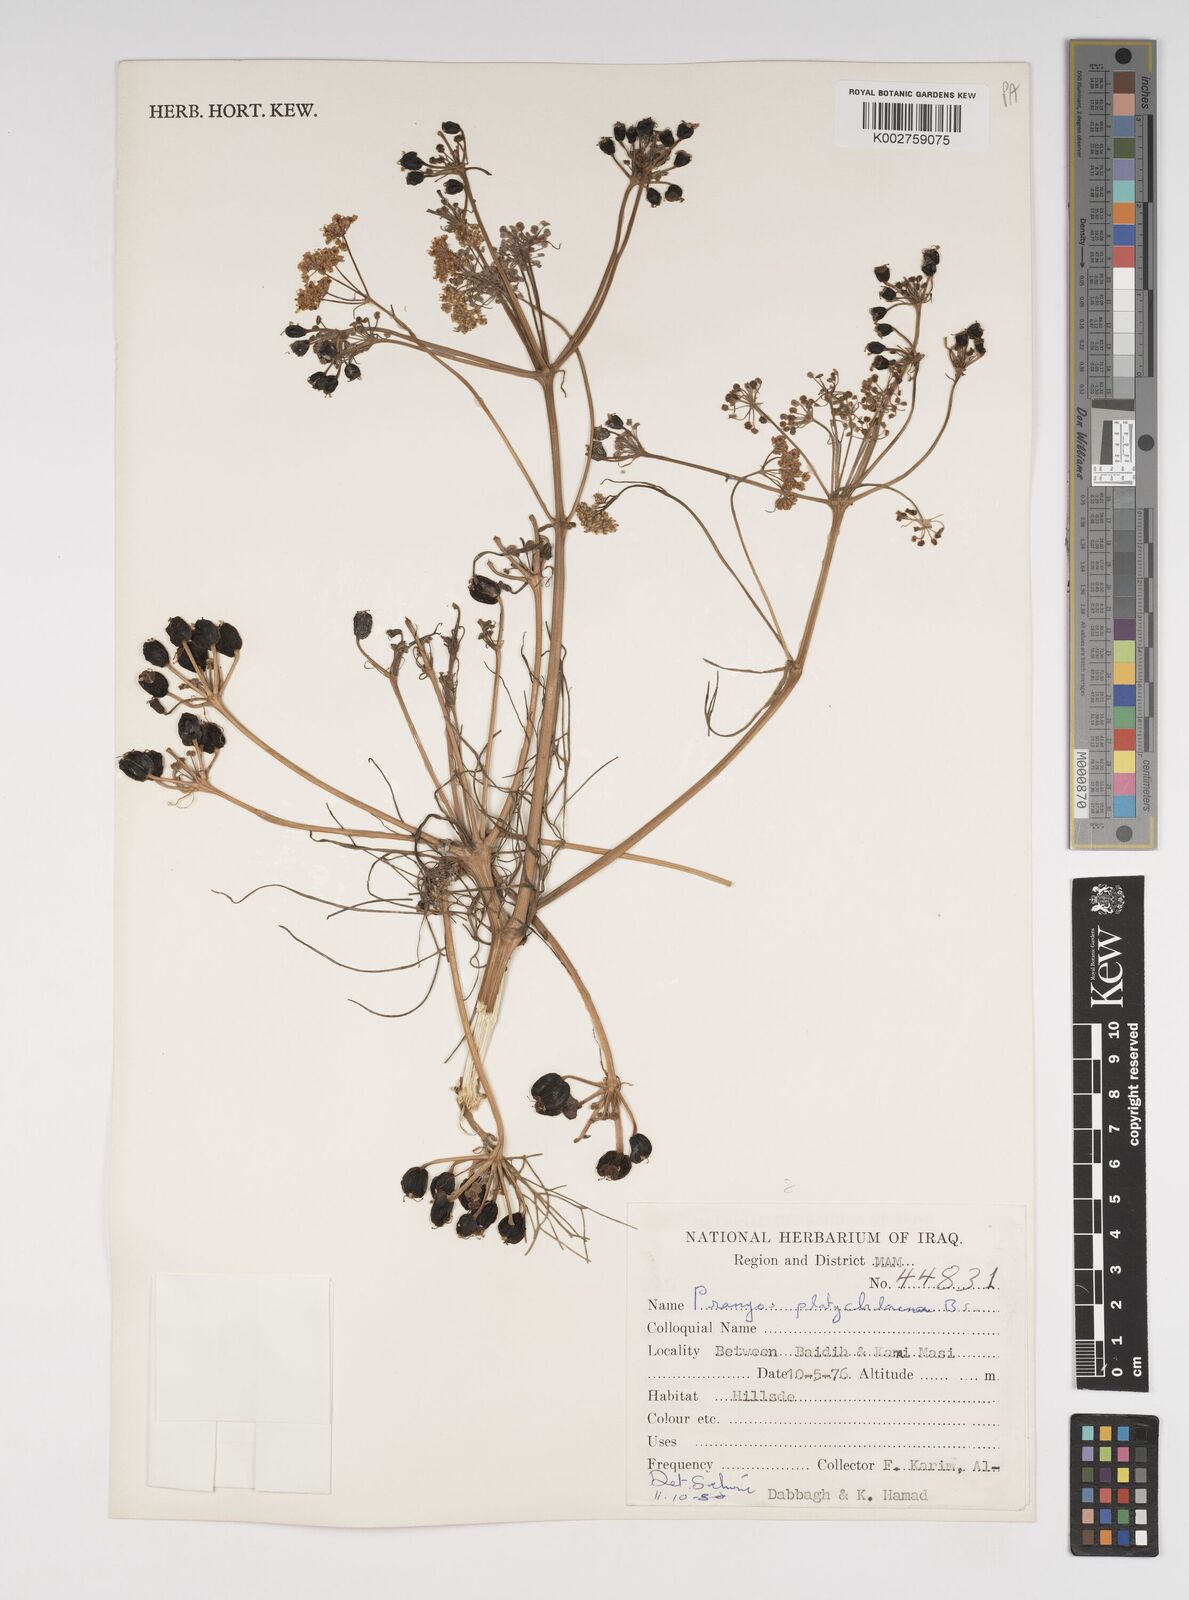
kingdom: Plantae
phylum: Tracheophyta
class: Magnoliopsida
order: Apiales
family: Apiaceae
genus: Prangos
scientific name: Prangos platychlaena
